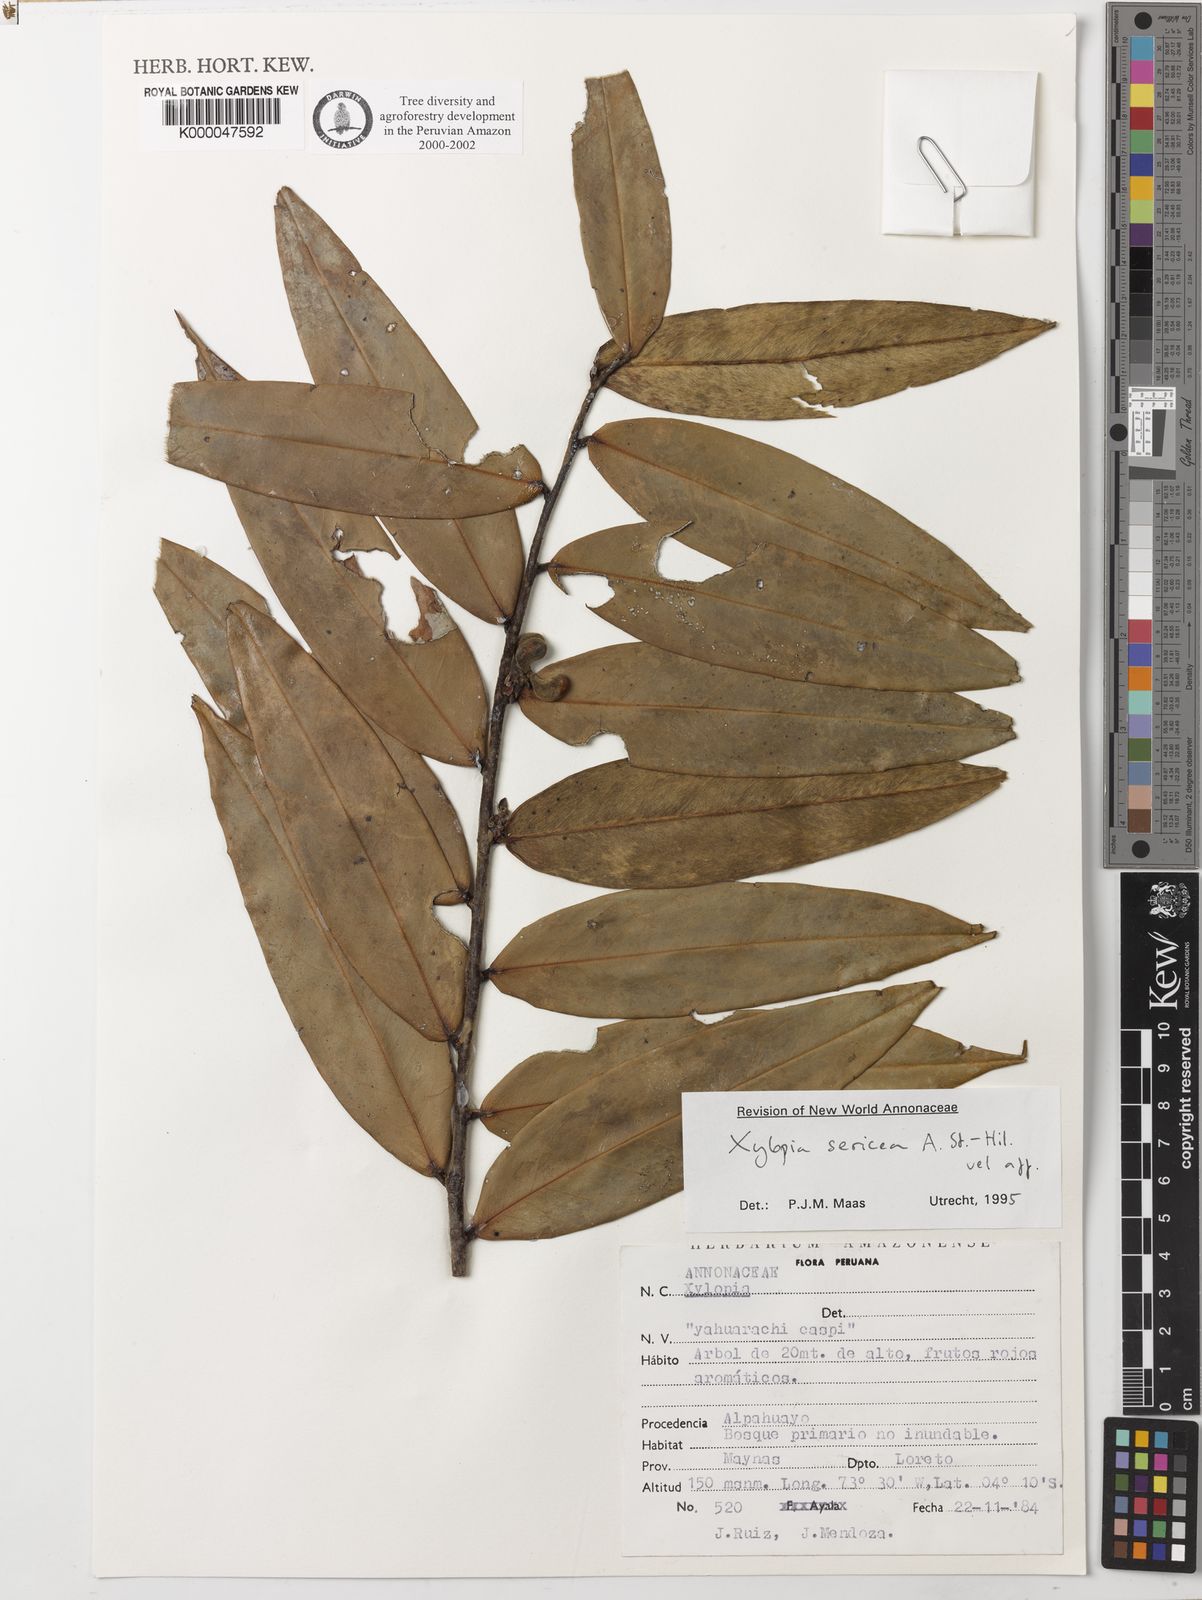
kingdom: Plantae
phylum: Tracheophyta
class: Magnoliopsida
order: Magnoliales
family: Annonaceae
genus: Xylopia
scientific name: Xylopia sericea
